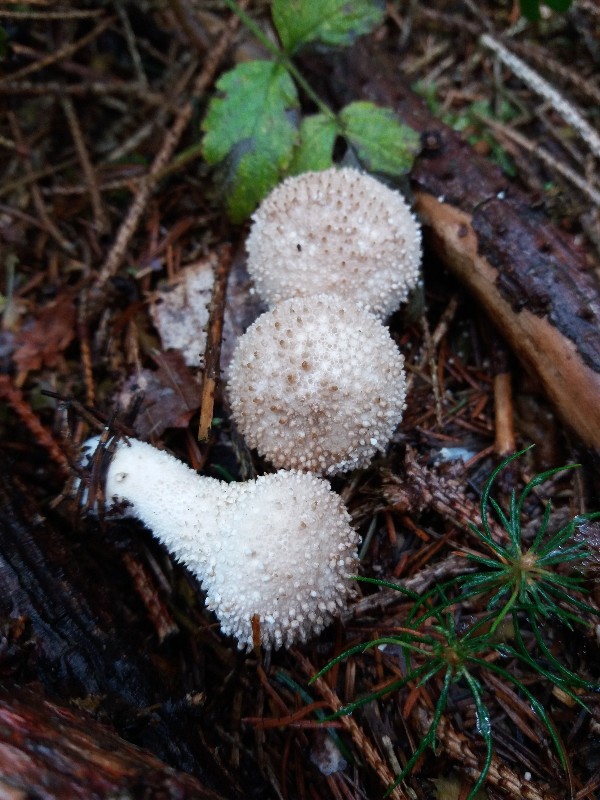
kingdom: Fungi
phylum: Basidiomycota
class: Agaricomycetes
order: Agaricales
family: Lycoperdaceae
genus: Lycoperdon
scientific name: Lycoperdon perlatum
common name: krystal-støvbold
